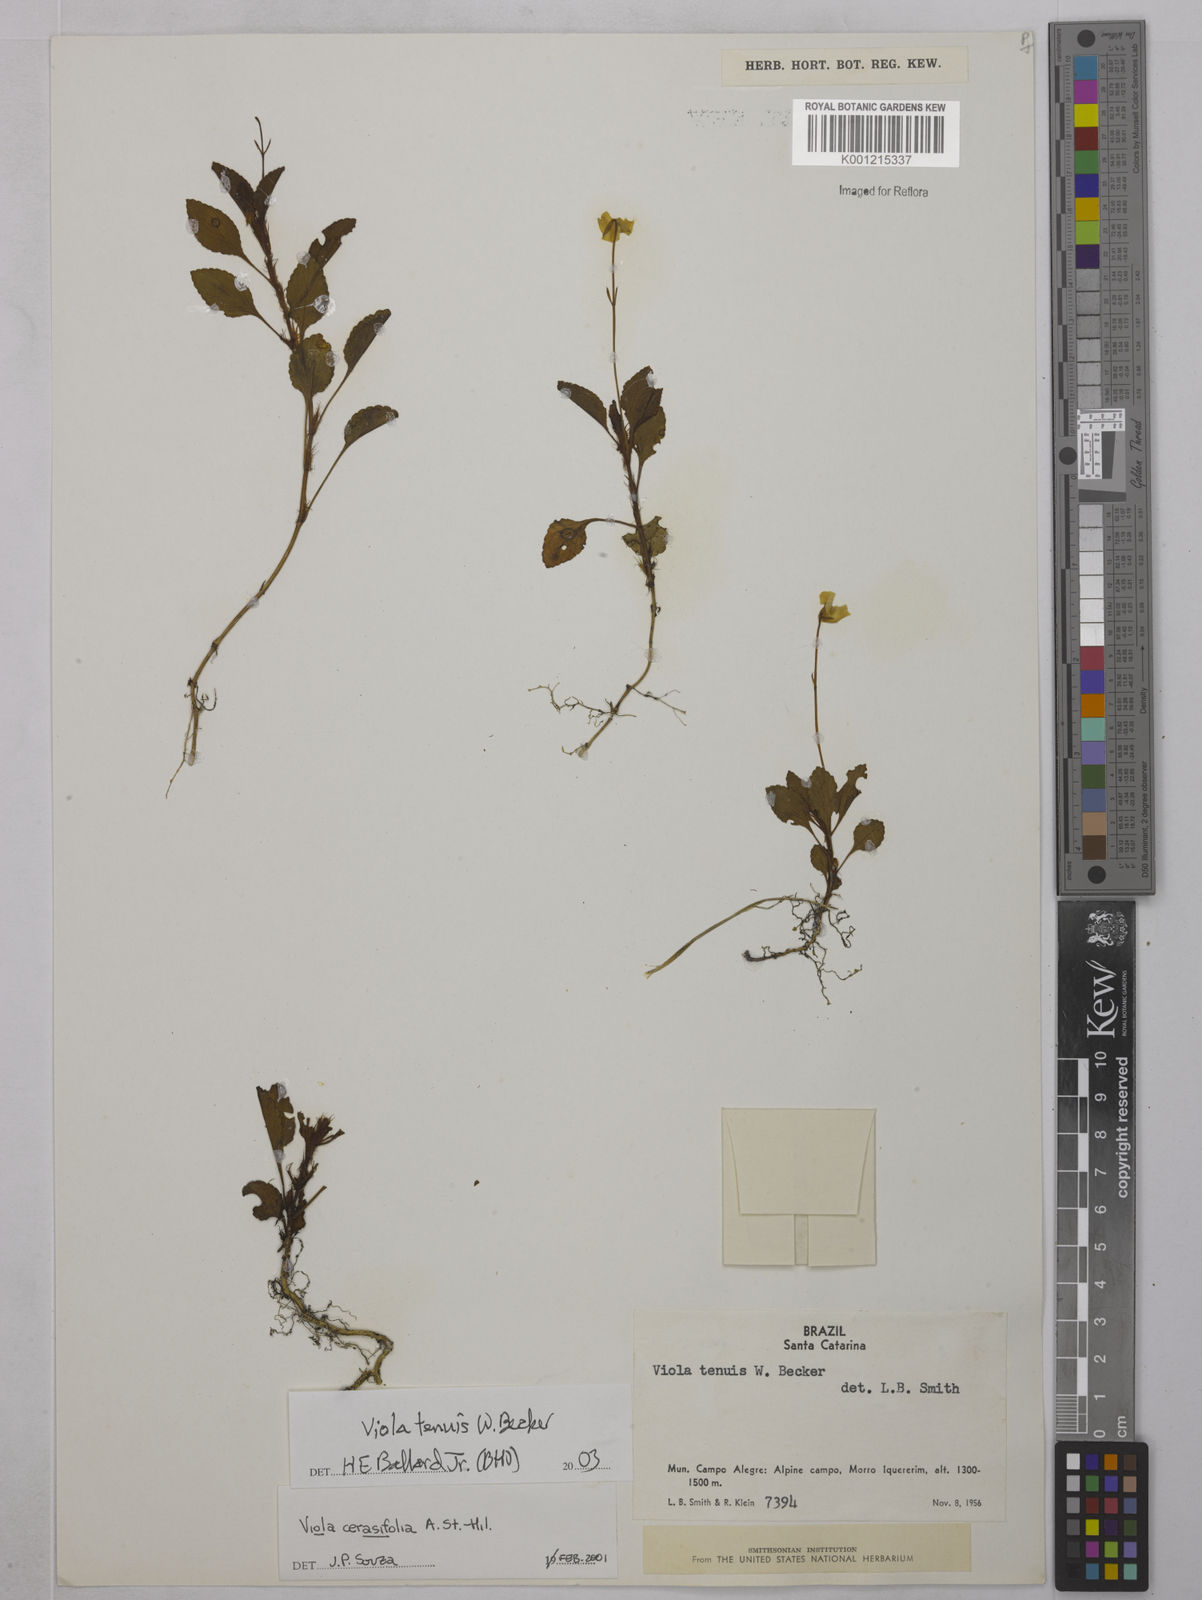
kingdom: Plantae
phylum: Tracheophyta
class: Magnoliopsida
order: Malpighiales
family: Violaceae
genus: Viola
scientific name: Viola uleana
